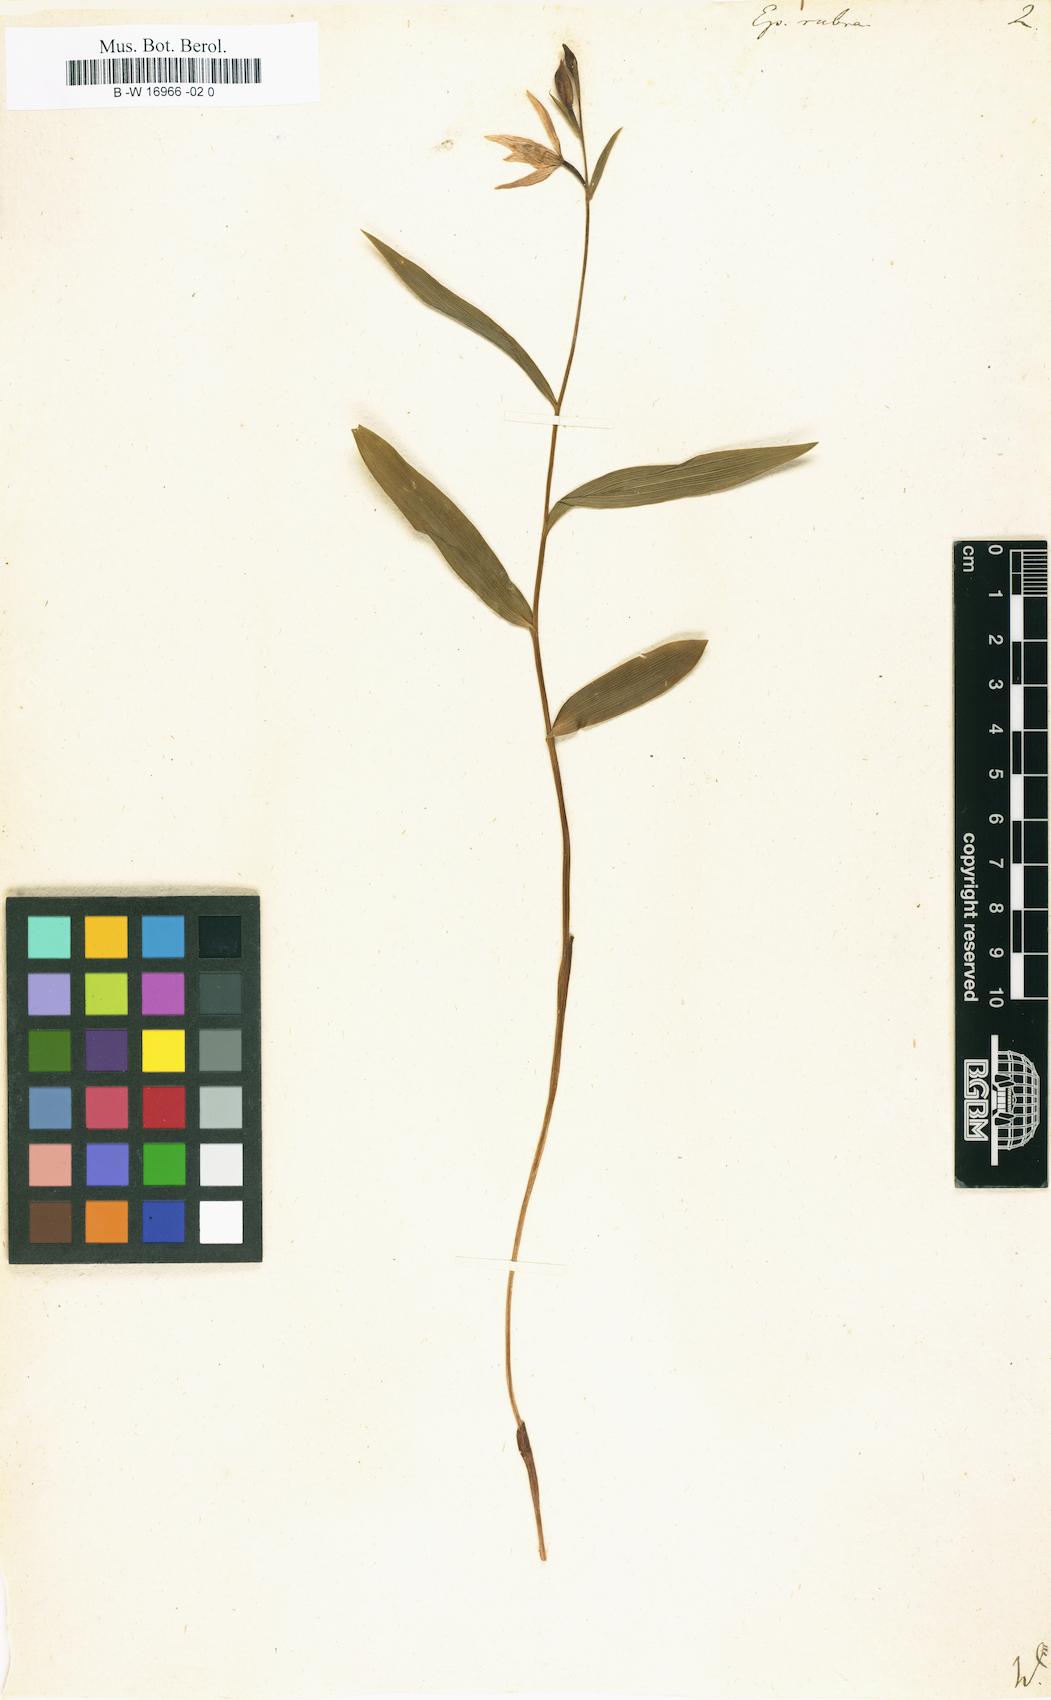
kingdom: Plantae
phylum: Tracheophyta
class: Liliopsida
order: Asparagales
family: Orchidaceae
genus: Cephalanthera
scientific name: Cephalanthera rubra
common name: Red helleborine
